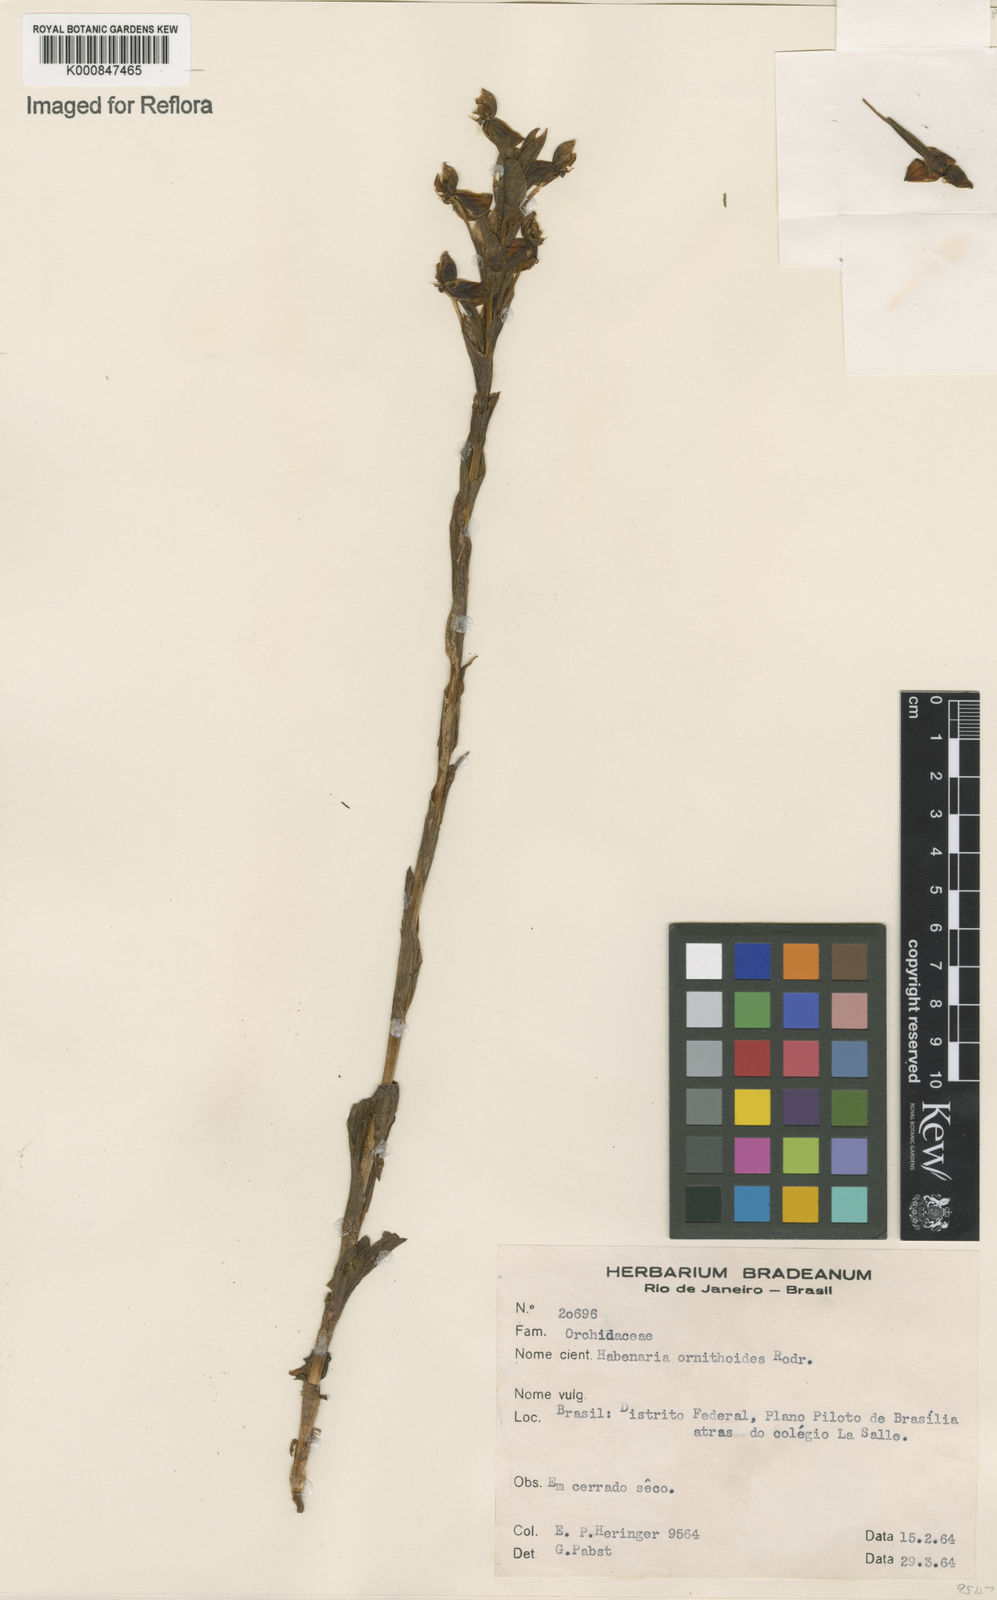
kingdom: Plantae
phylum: Tracheophyta
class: Liliopsida
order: Asparagales
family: Orchidaceae
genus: Habenaria
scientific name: Habenaria obtusa
